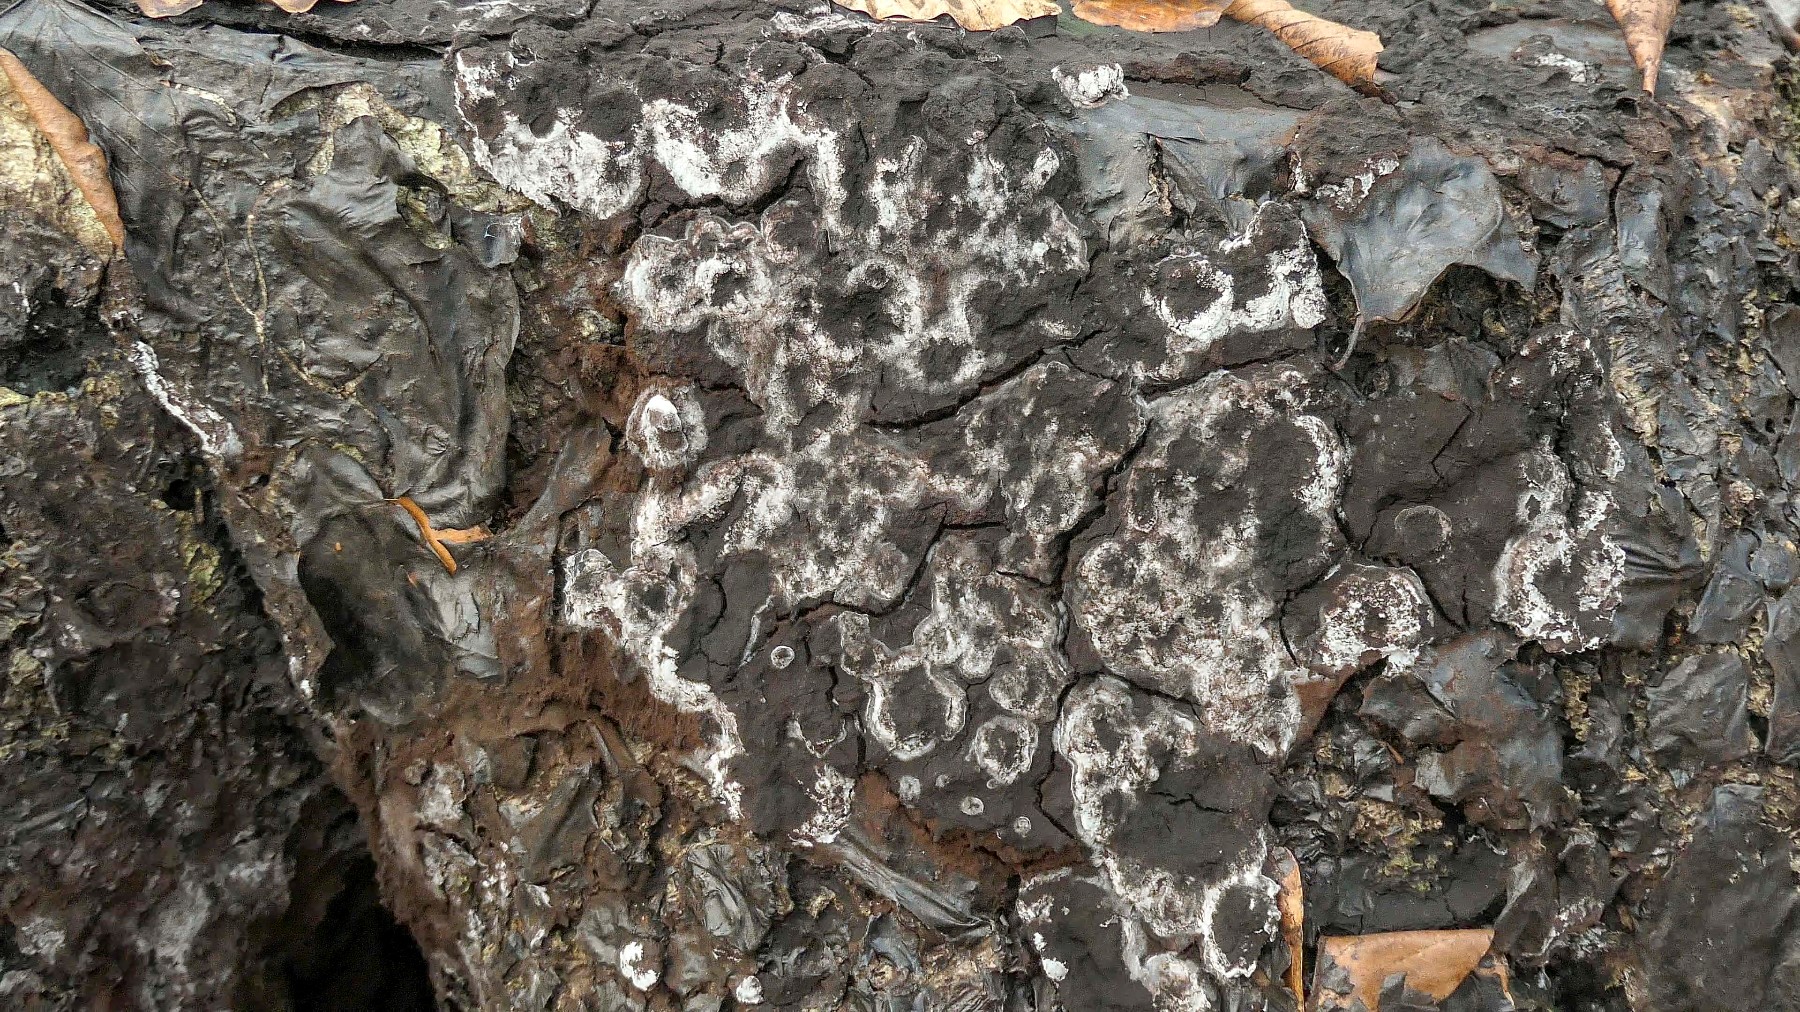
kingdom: Protozoa
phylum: Mycetozoa
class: Myxomycetes
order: Stemonitidales
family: Stemonitidaceae
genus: Brefeldia
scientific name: Brefeldia maxima
